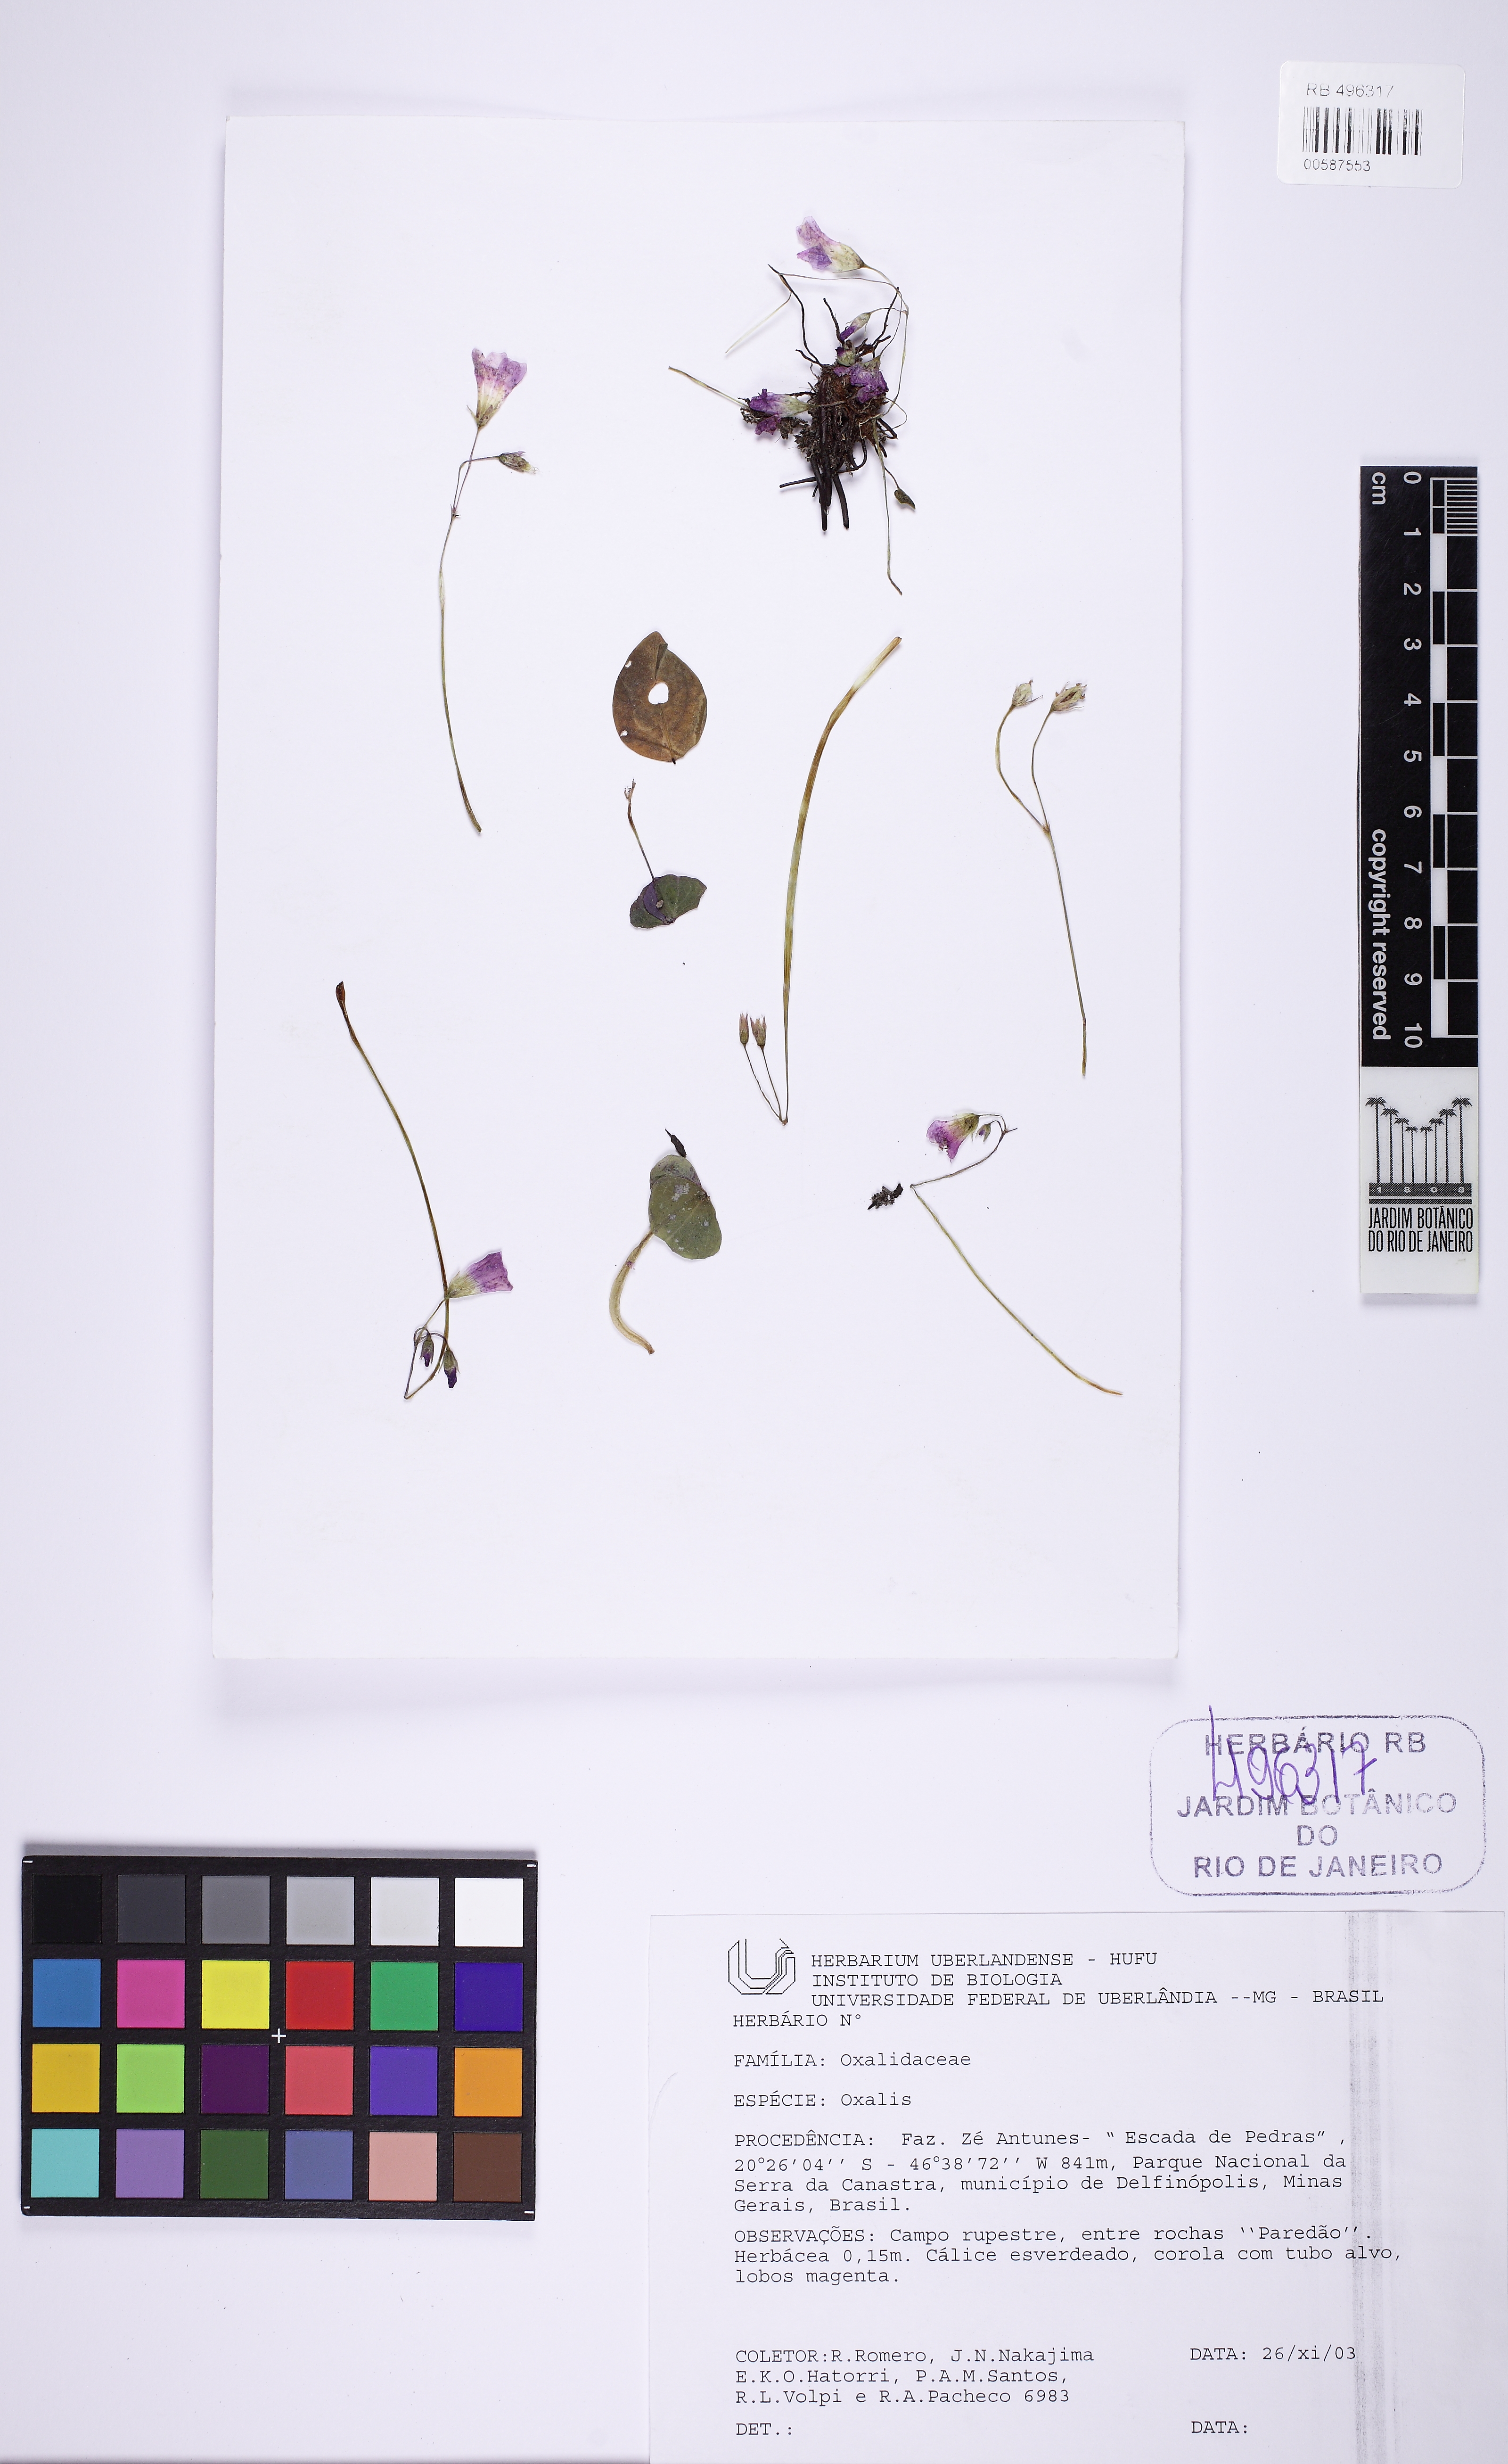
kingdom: Plantae
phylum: Tracheophyta
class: Magnoliopsida
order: Oxalidales
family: Oxalidaceae
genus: Oxalis
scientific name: Oxalis calva
